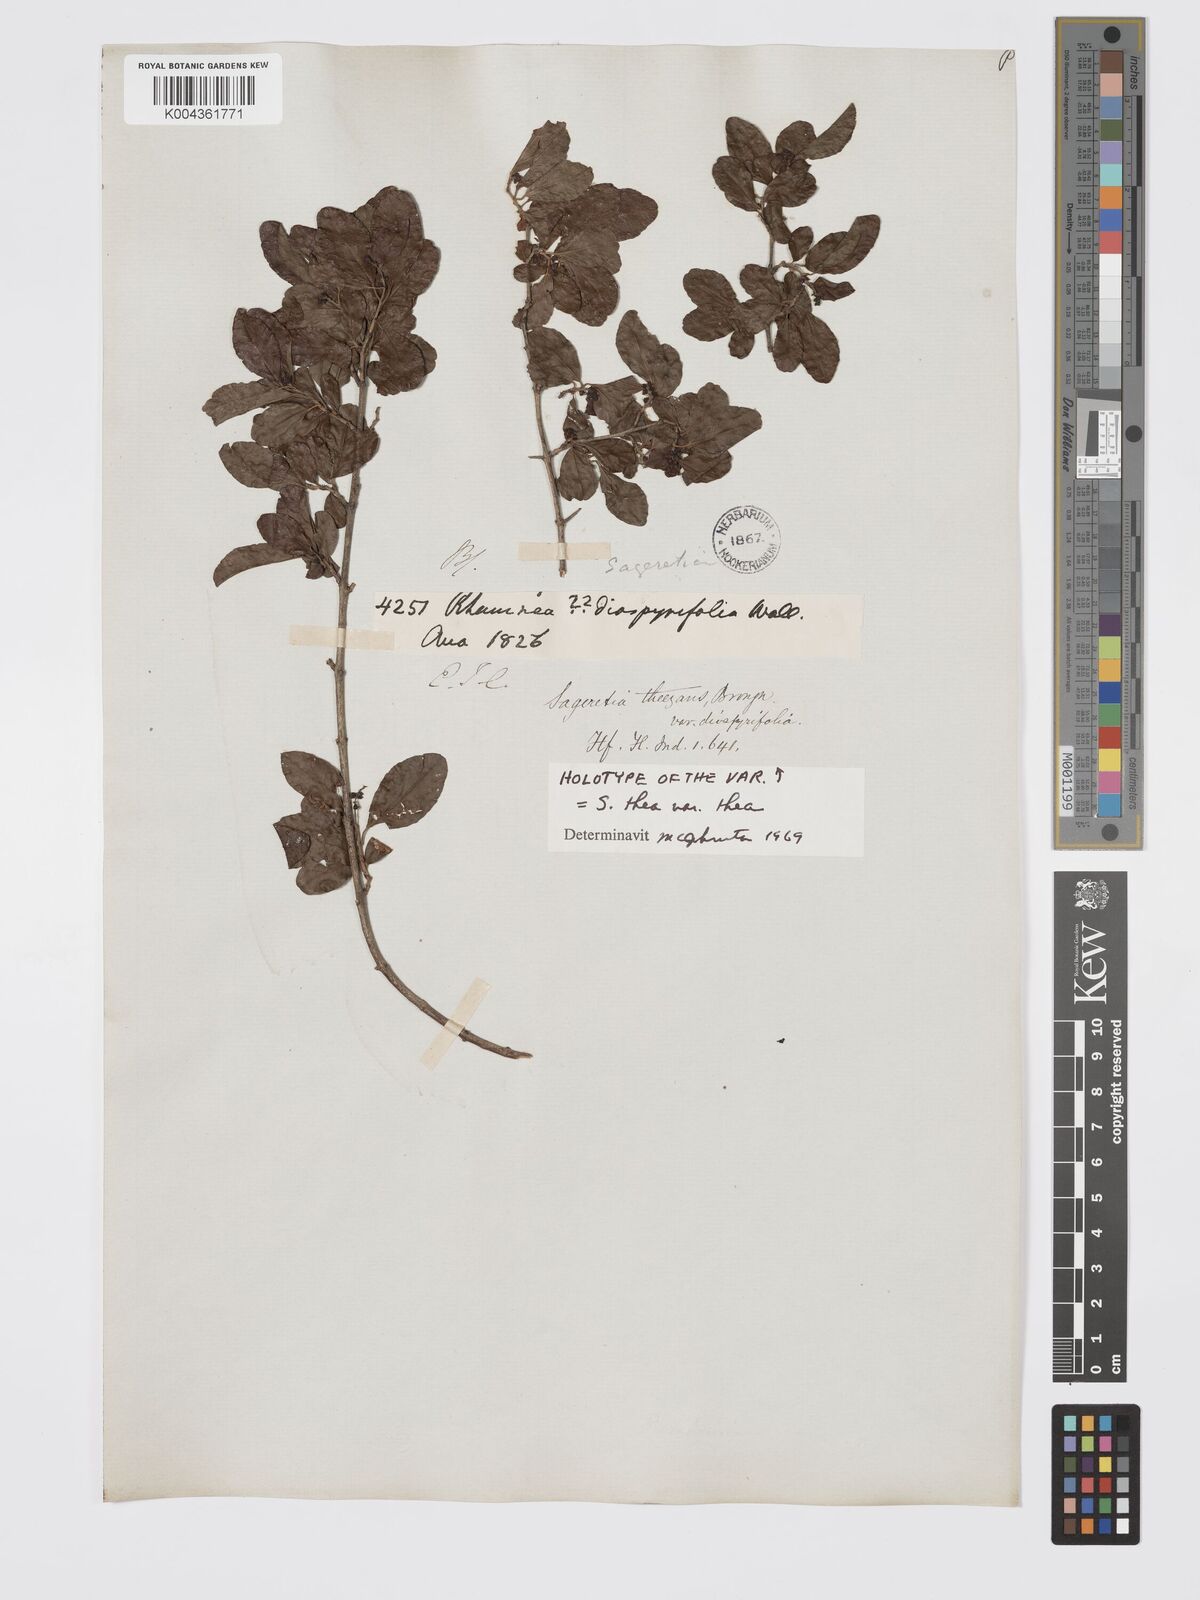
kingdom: Plantae
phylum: Tracheophyta
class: Magnoliopsida
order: Rosales
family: Rhamnaceae
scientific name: Rhamnaceae
